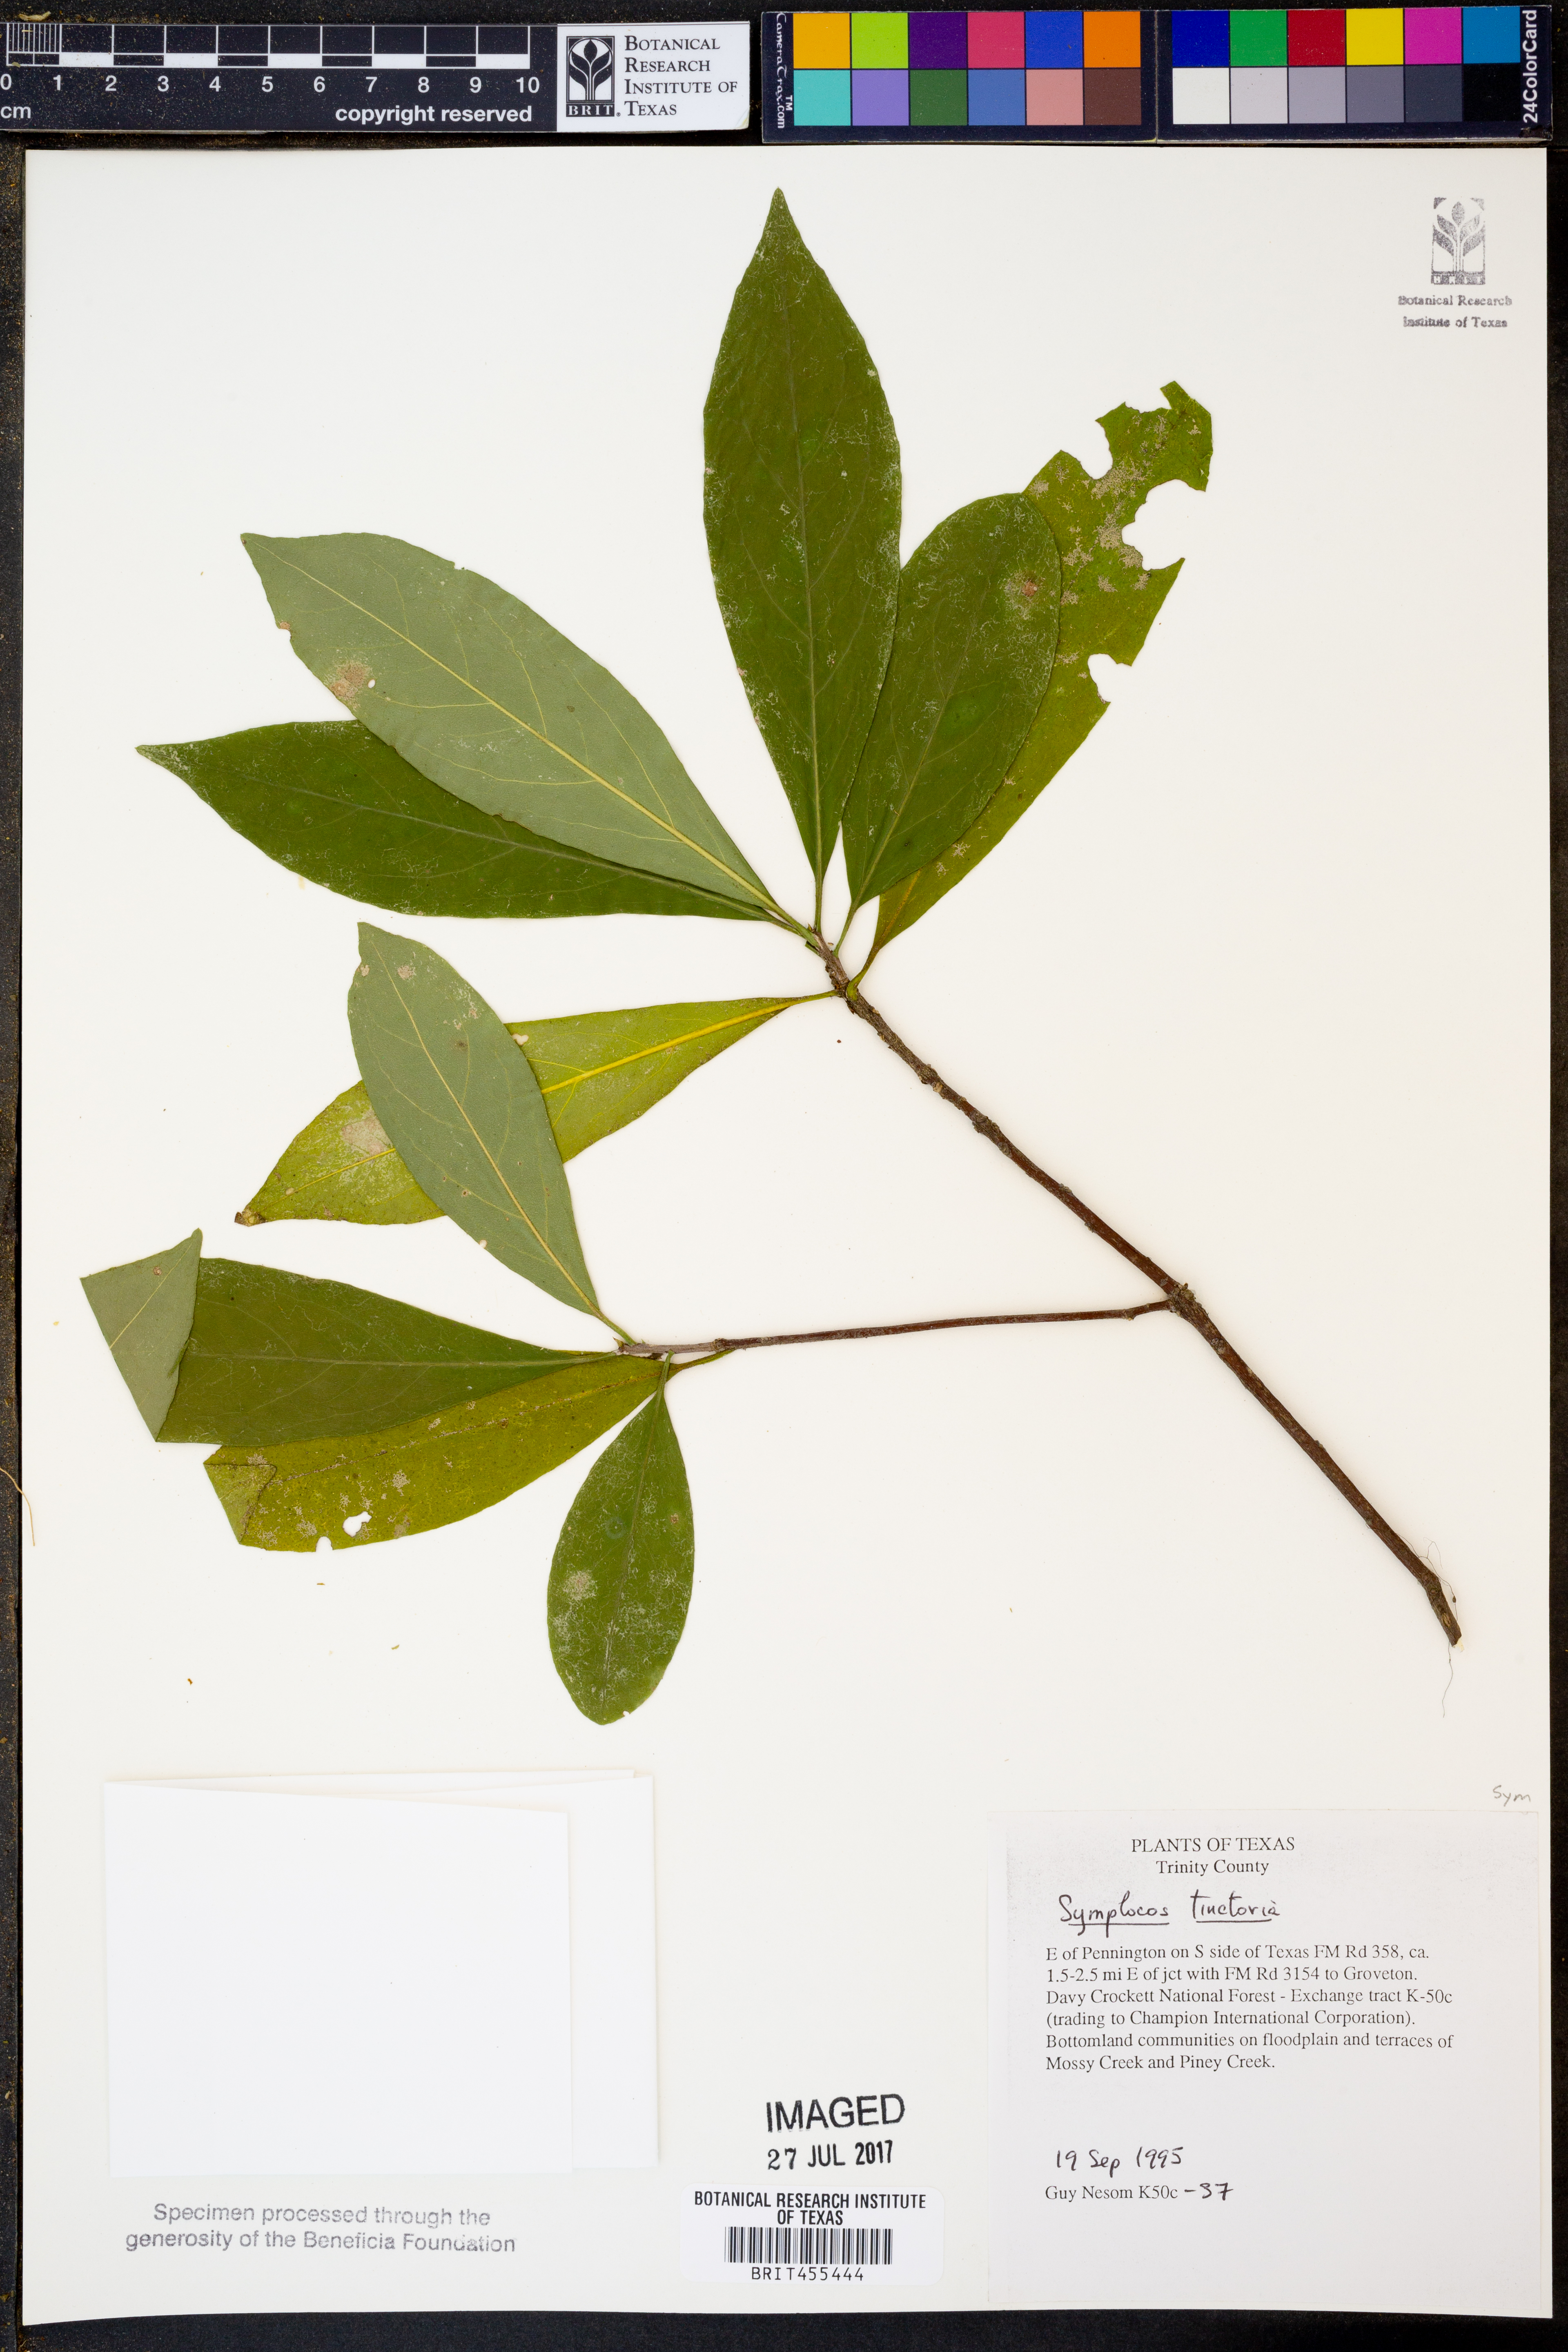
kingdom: Plantae
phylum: Tracheophyta
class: Magnoliopsida
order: Ericales
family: Symplocaceae
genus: Symplocos
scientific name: Symplocos tinctoria
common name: Horse-sugar
